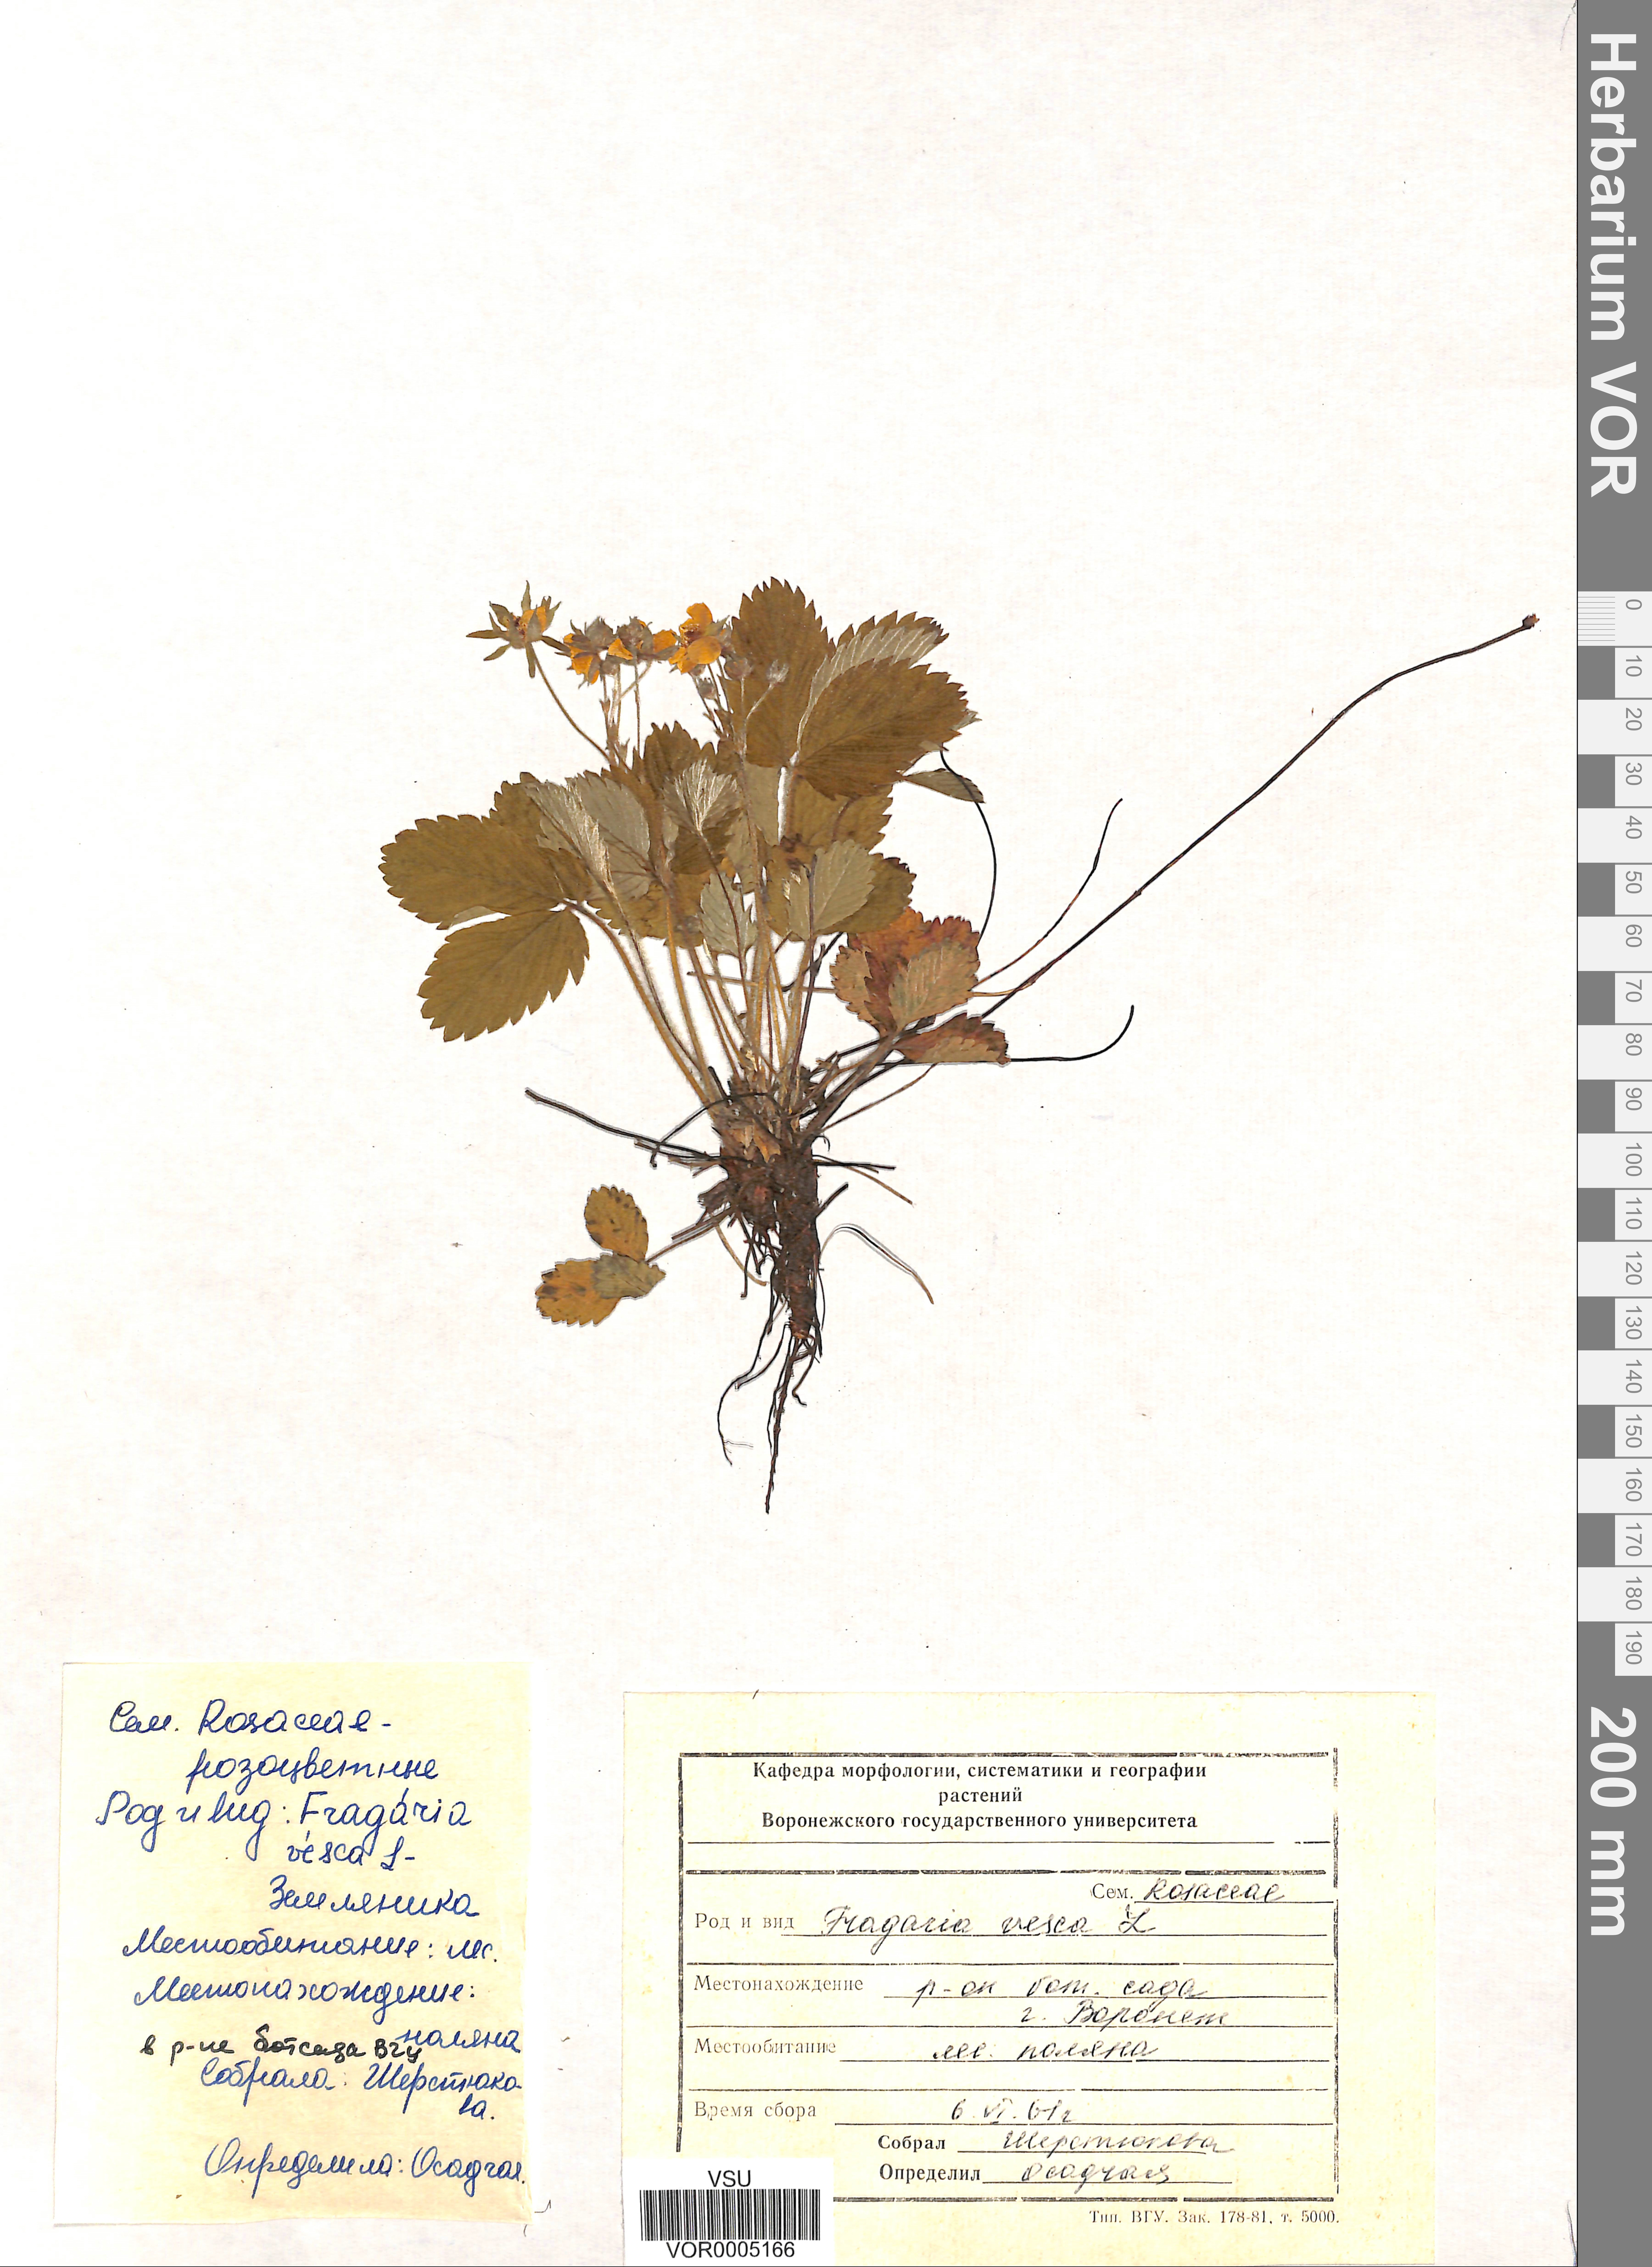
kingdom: Plantae
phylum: Tracheophyta
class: Magnoliopsida
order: Rosales
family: Rosaceae
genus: Fragaria
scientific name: Fragaria vesca
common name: Wild strawberry
